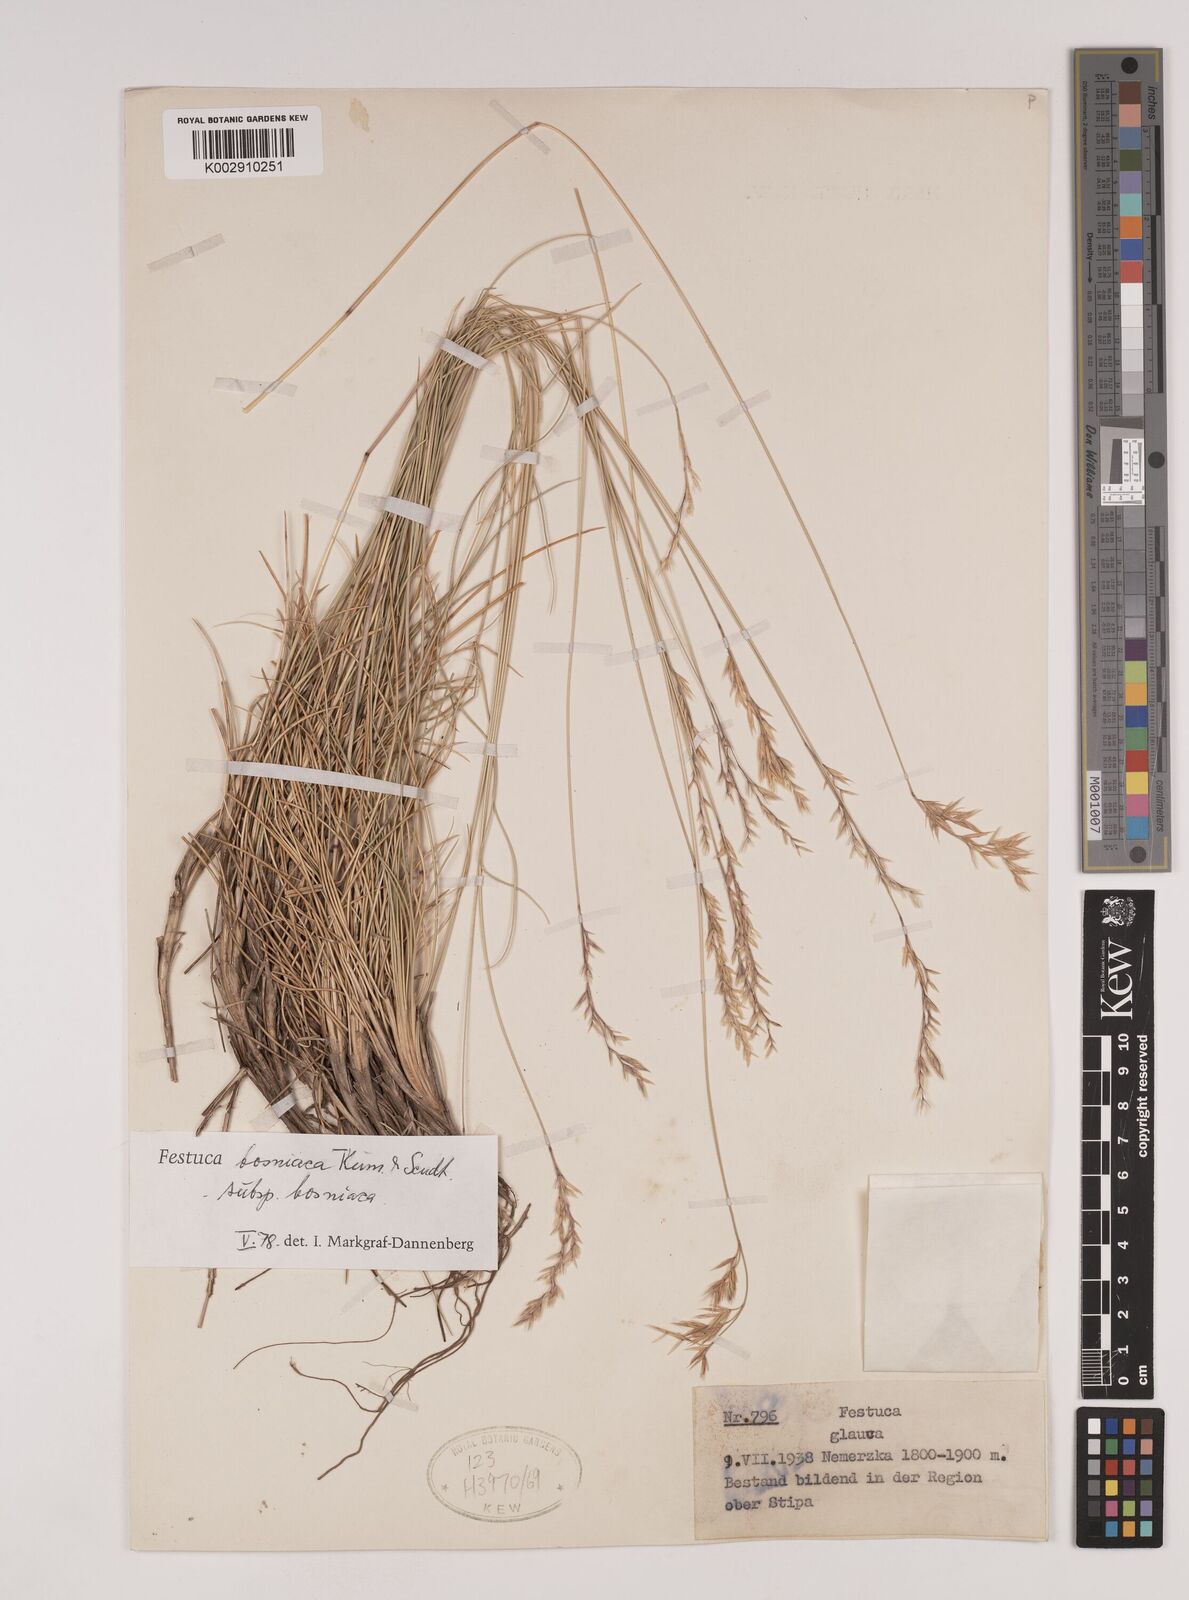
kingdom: Plantae
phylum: Tracheophyta
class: Liliopsida
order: Poales
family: Poaceae
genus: Festuca
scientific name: Festuca bosniaca
